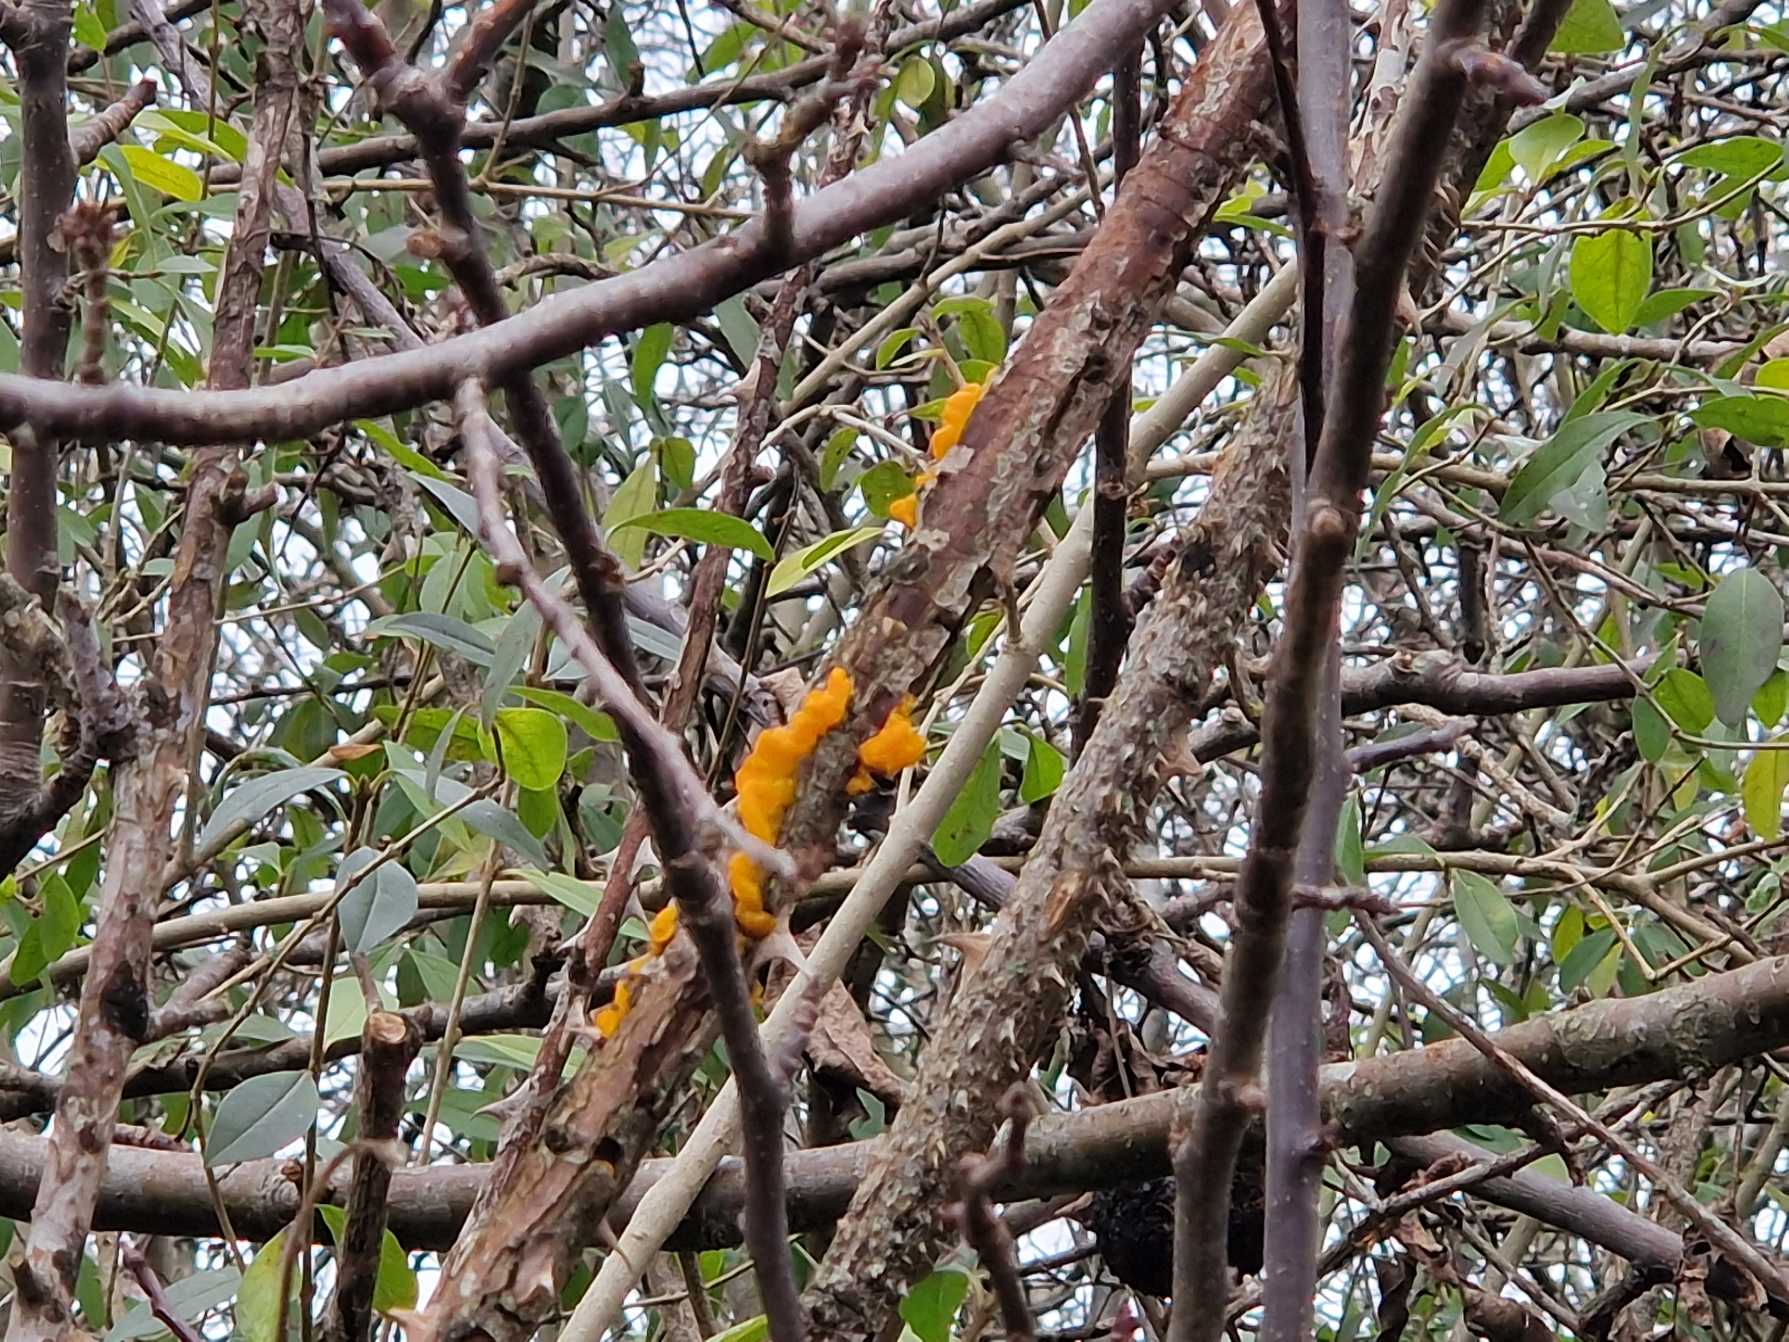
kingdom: Fungi
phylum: Basidiomycota
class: Tremellomycetes
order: Tremellales
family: Tremellaceae
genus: Tremella
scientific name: Tremella mesenterica
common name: Gul bævresvamp
